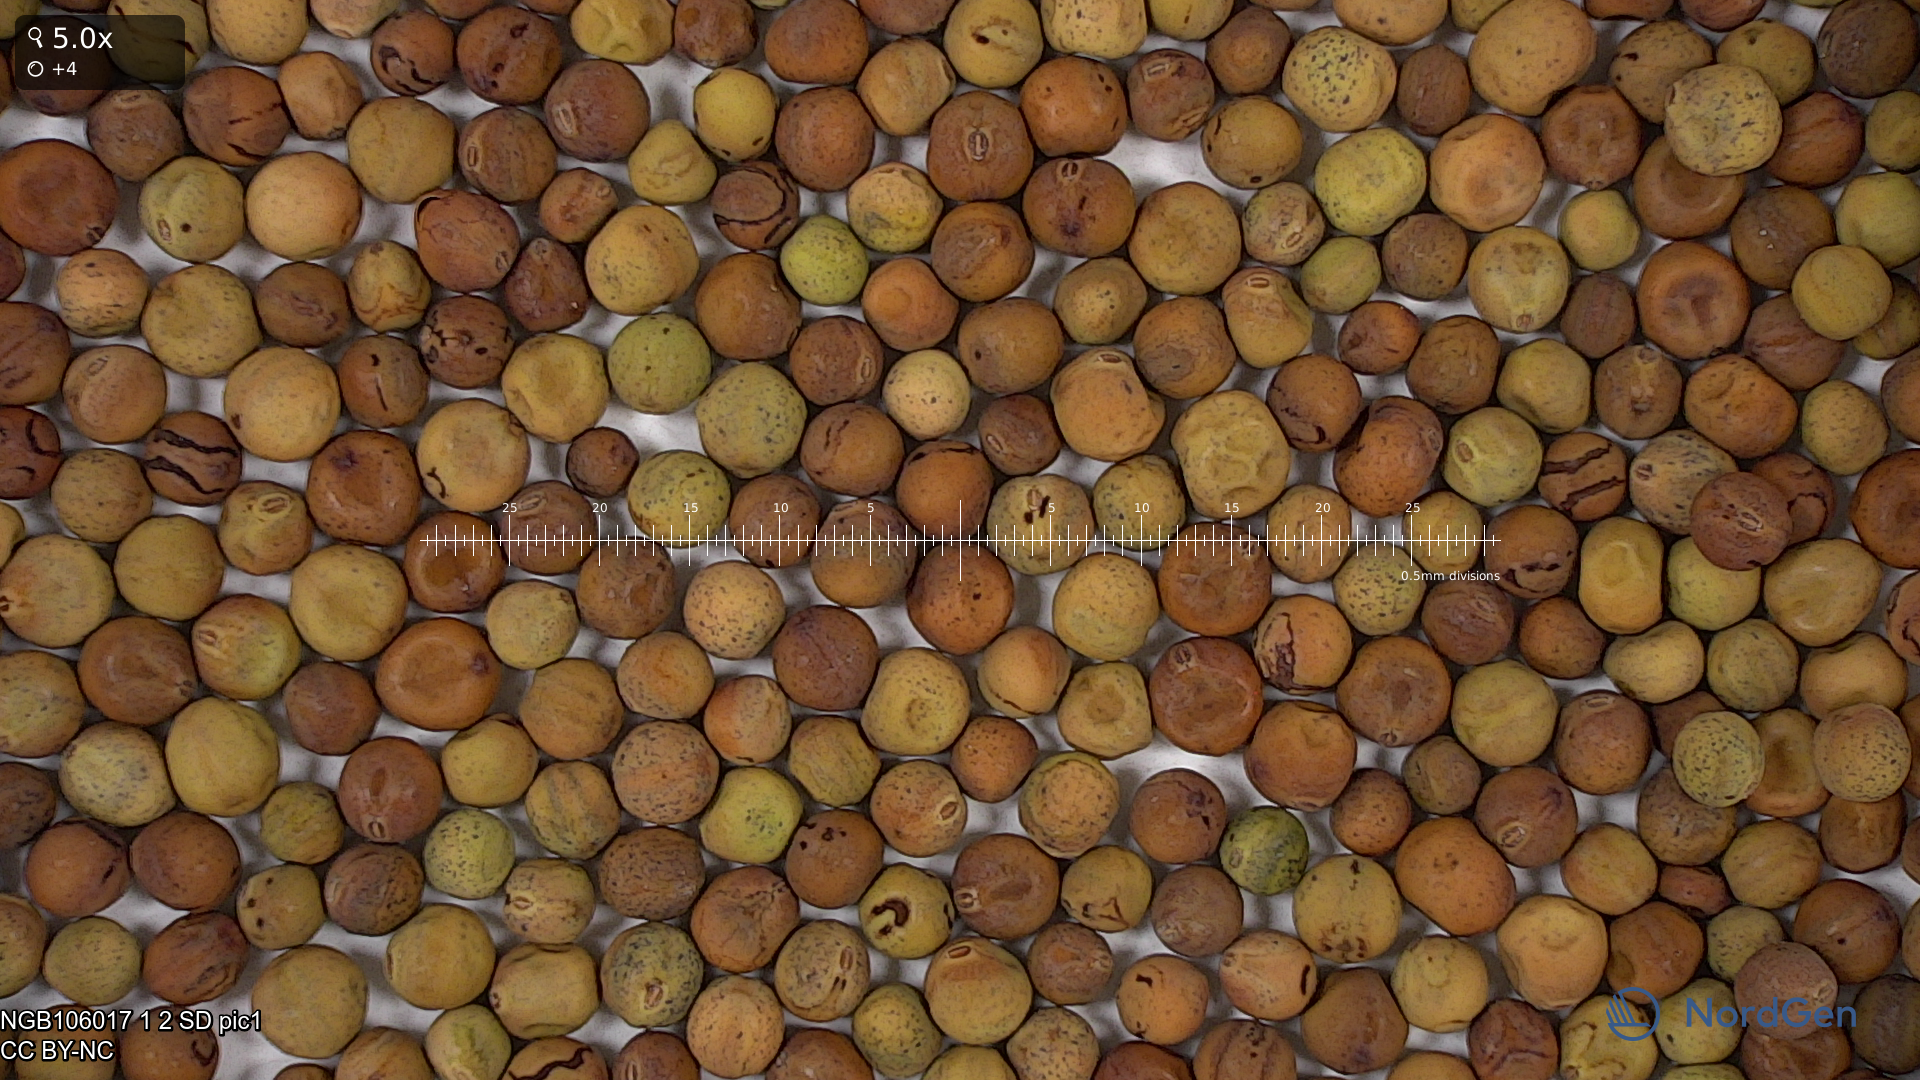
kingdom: Plantae
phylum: Tracheophyta
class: Magnoliopsida
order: Fabales
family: Fabaceae
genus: Lathyrus
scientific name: Lathyrus oleraceus
